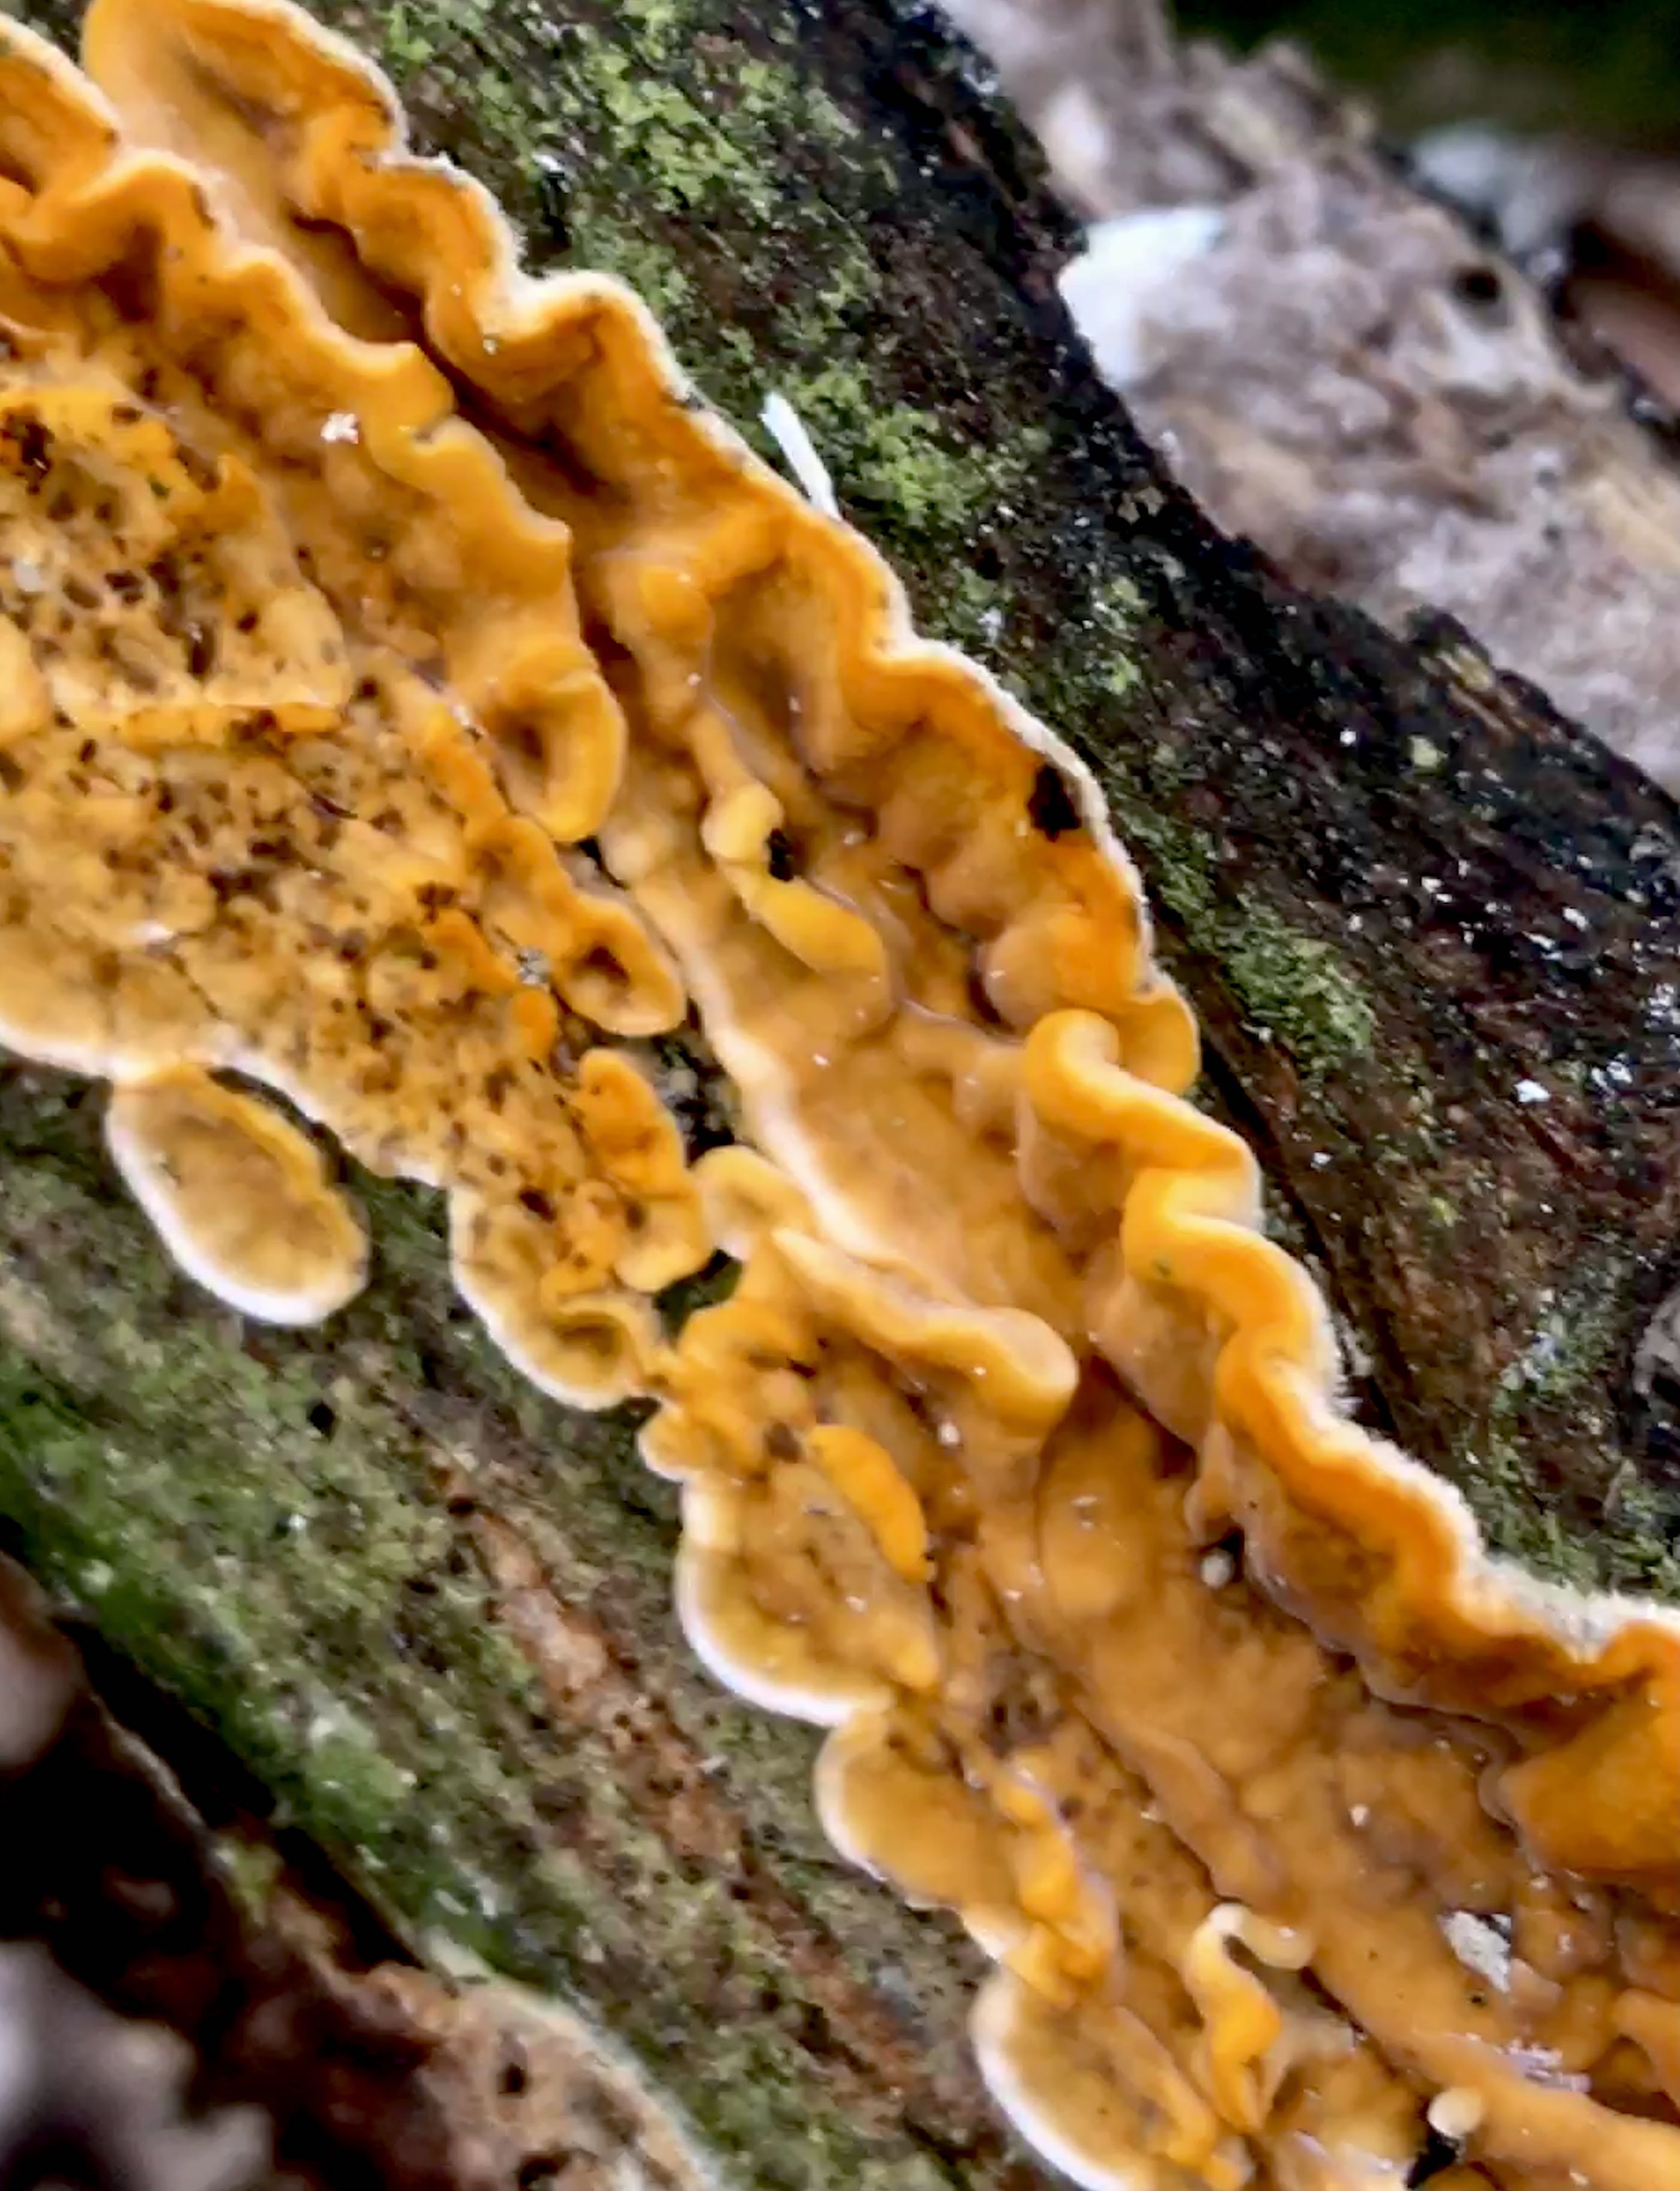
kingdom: Fungi
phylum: Basidiomycota
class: Agaricomycetes
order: Russulales
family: Stereaceae
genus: Stereum
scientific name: Stereum hirsutum
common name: håret lædersvamp
